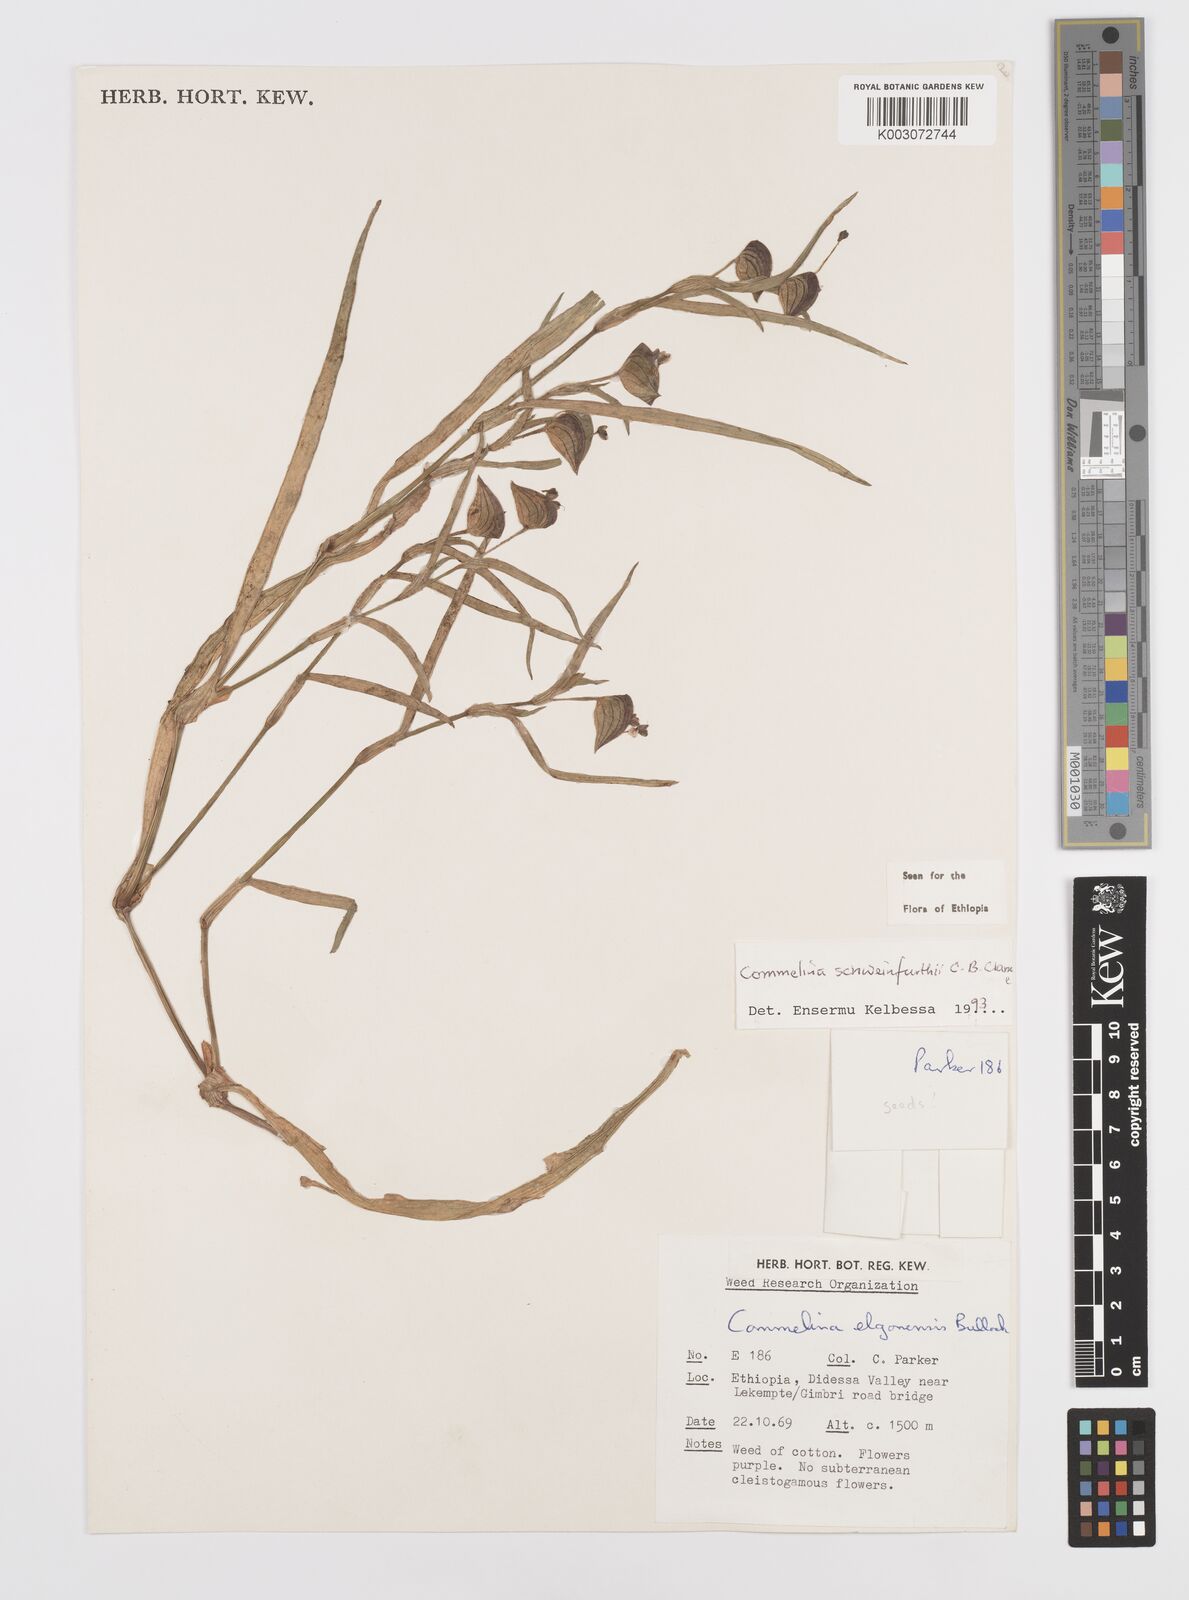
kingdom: Plantae
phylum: Tracheophyta
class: Liliopsida
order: Commelinales
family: Commelinaceae
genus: Commelina
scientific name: Commelina schweinfurthii
